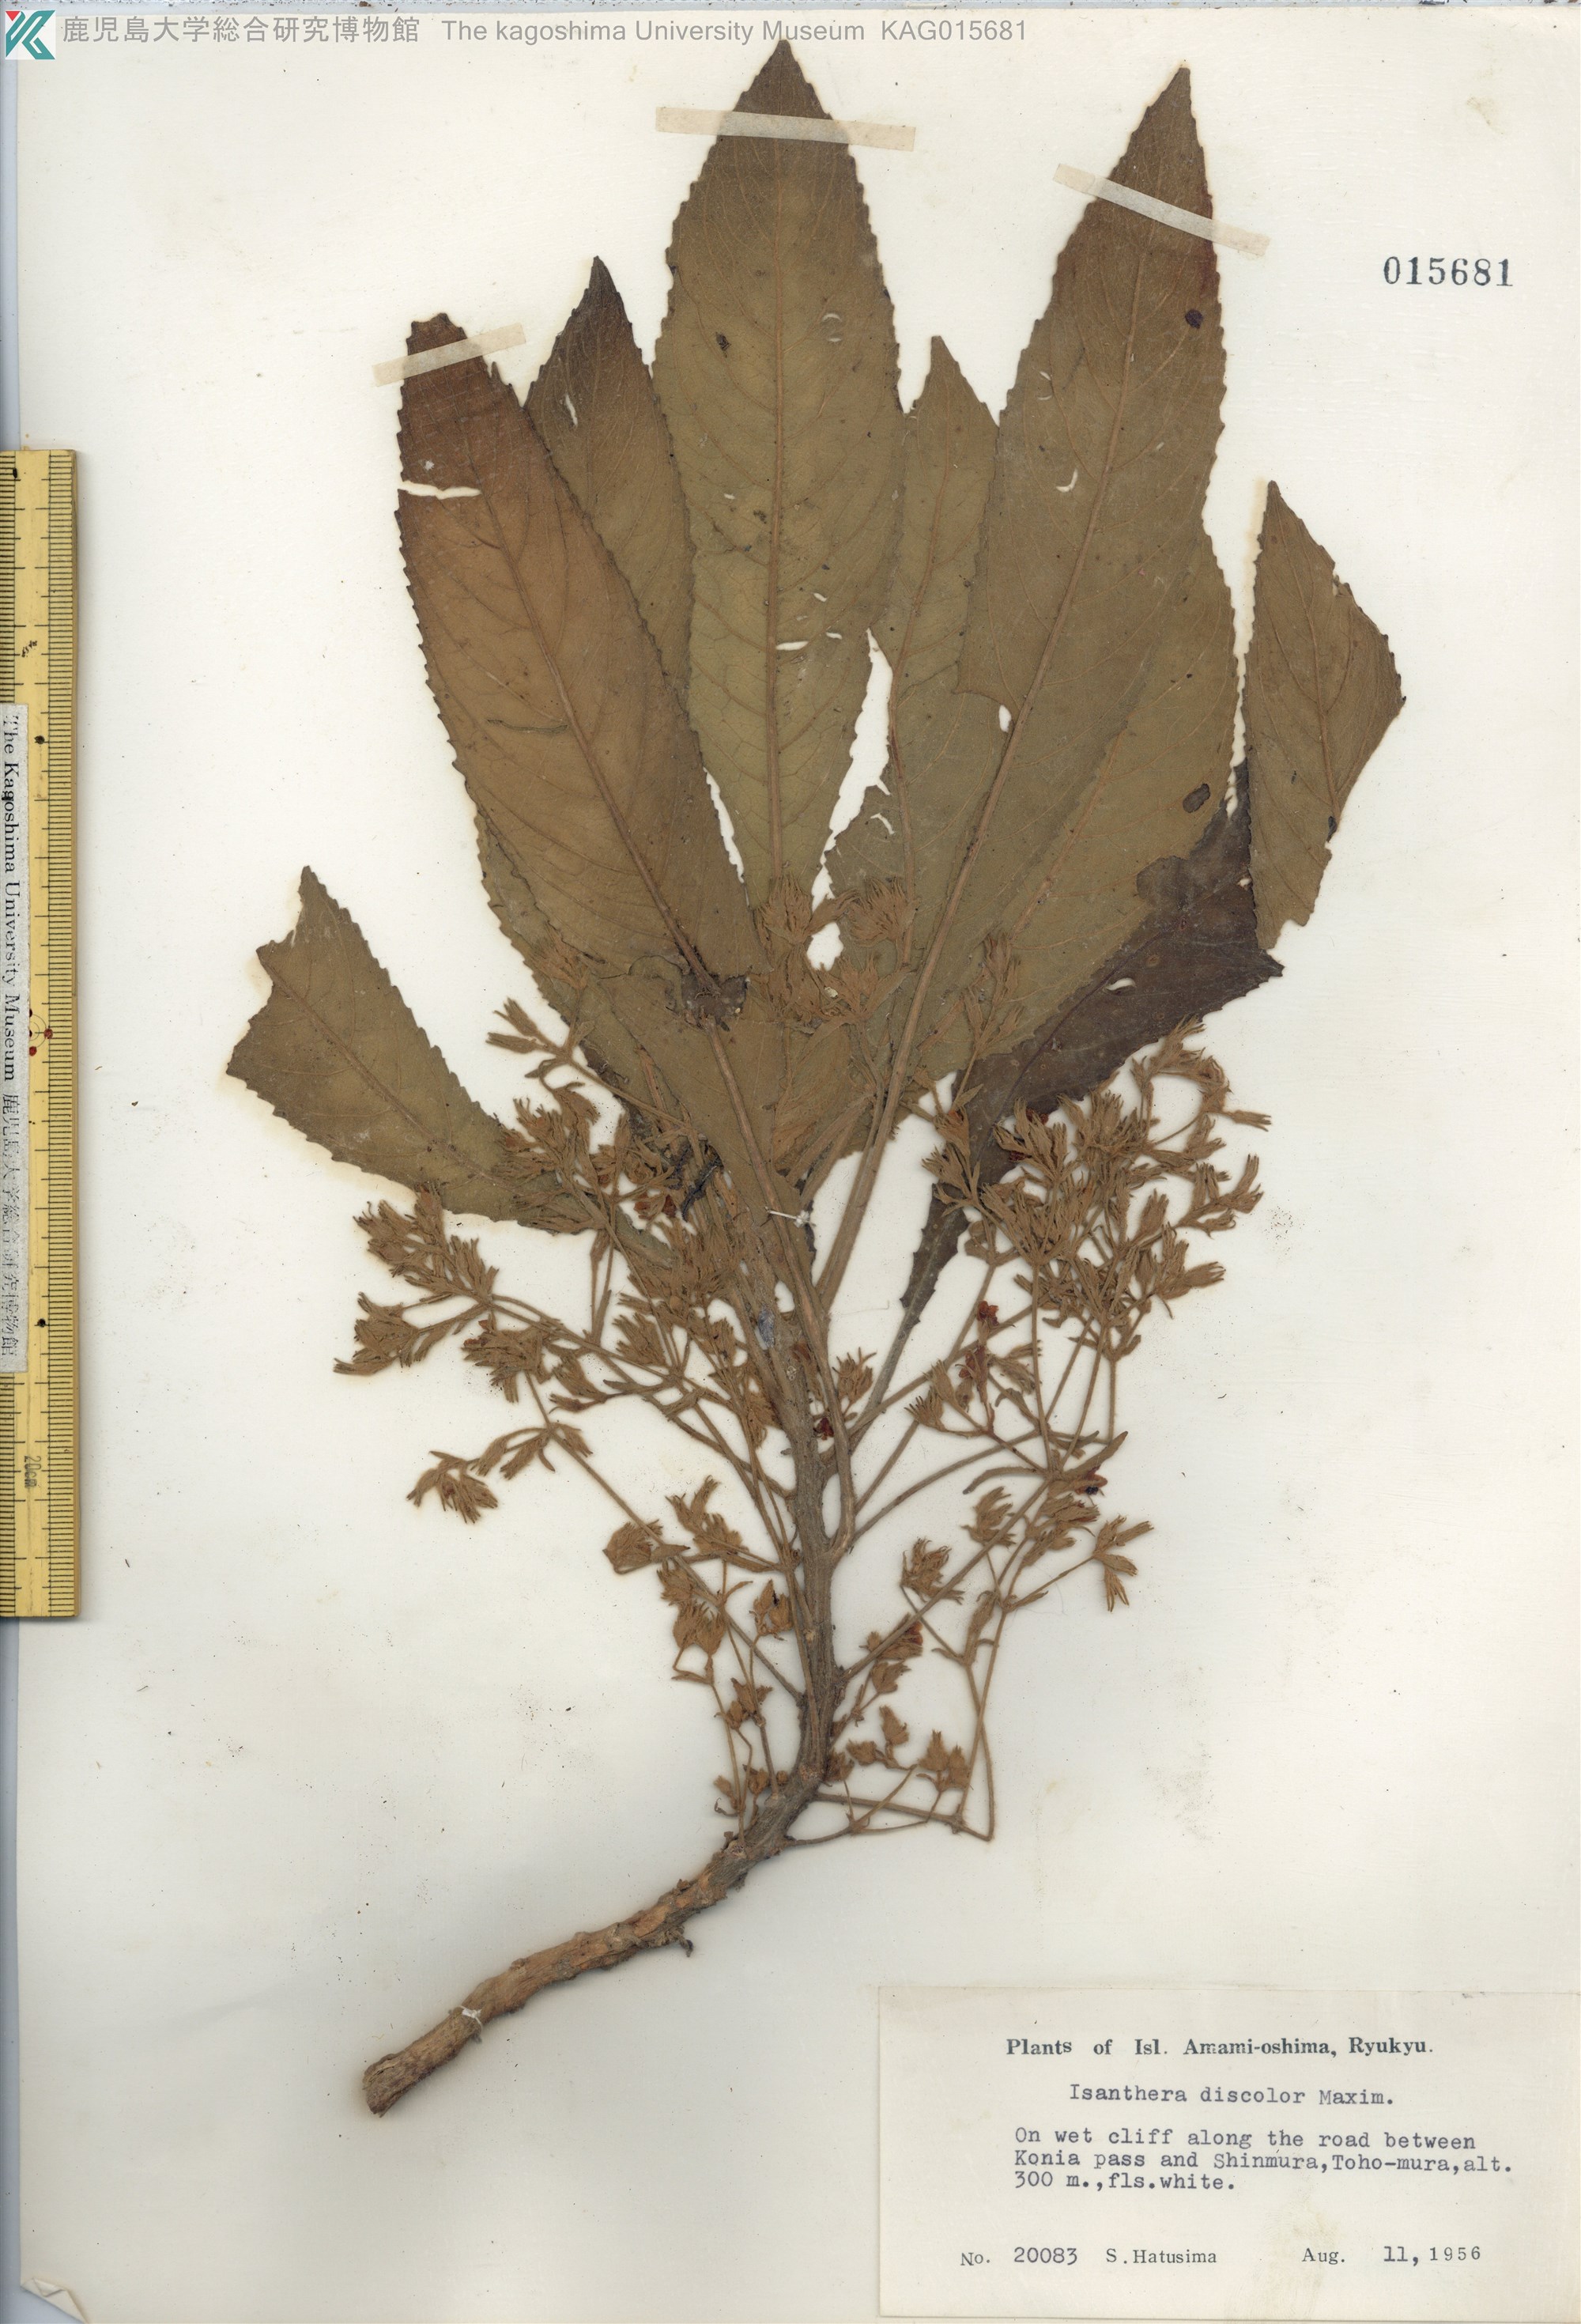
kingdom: Plantae
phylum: Tracheophyta
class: Magnoliopsida
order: Lamiales
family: Gesneriaceae
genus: Rhynchotechum
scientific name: Rhynchotechum discolor
